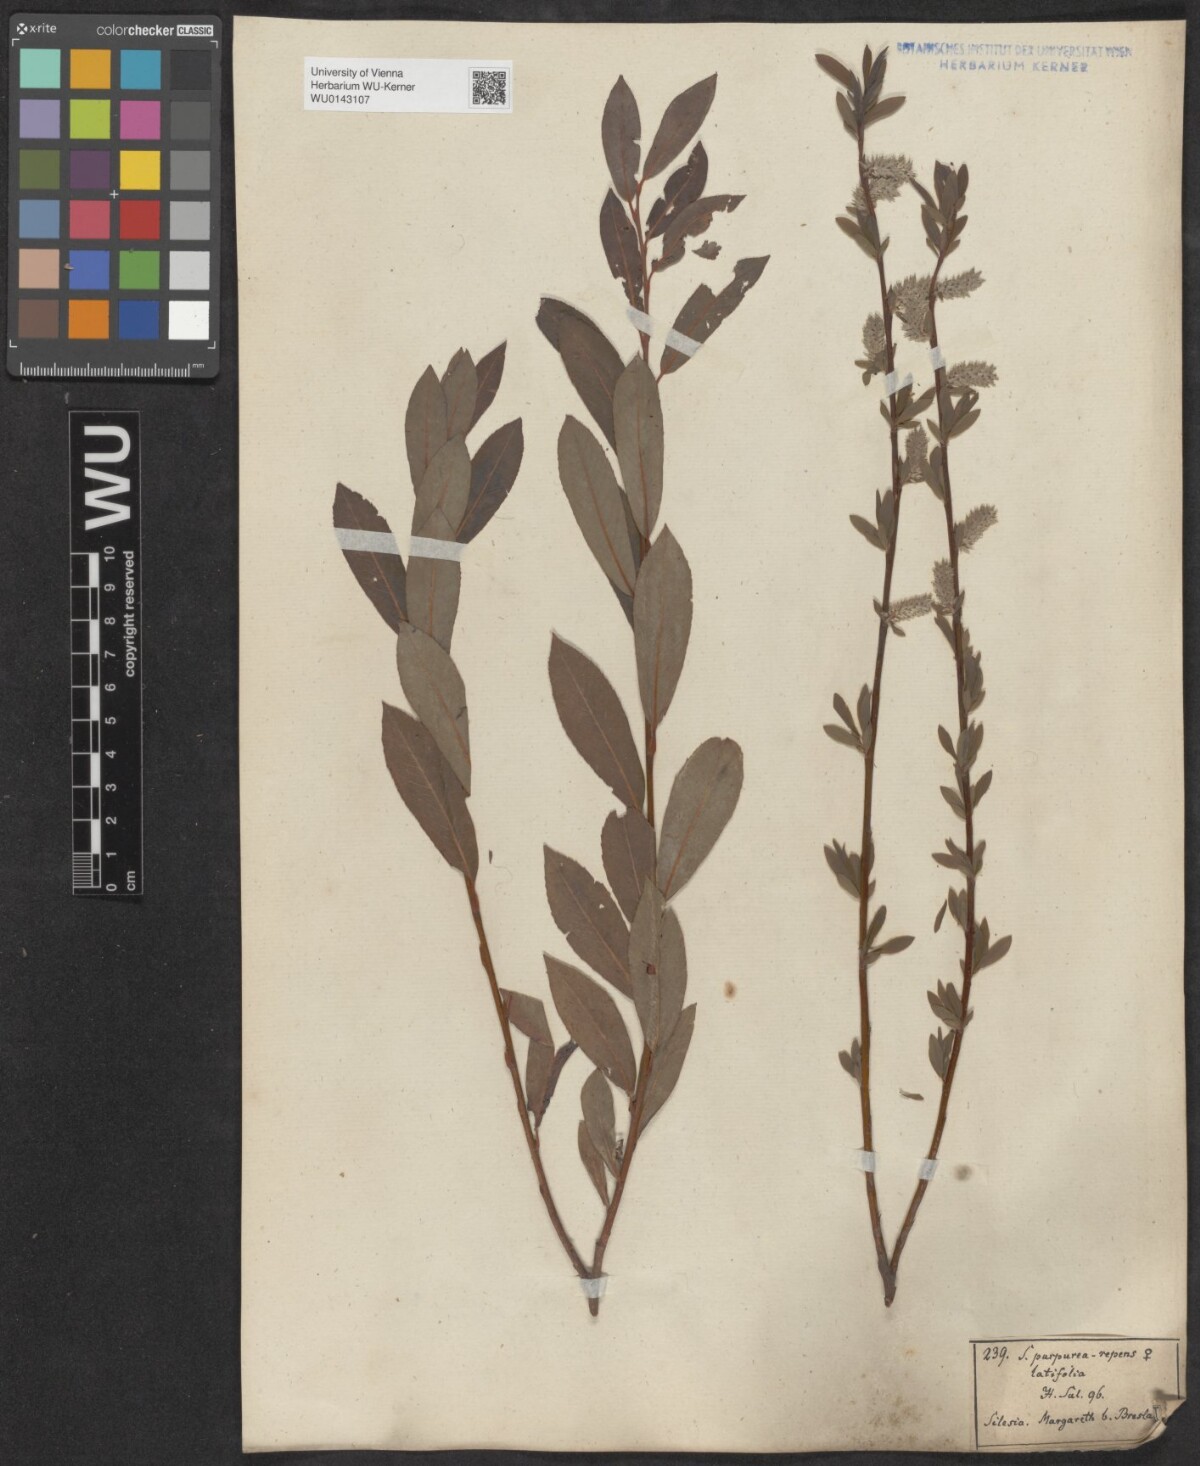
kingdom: Plantae
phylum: Tracheophyta
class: Magnoliopsida
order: Malpighiales
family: Salicaceae
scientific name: Salicaceae
